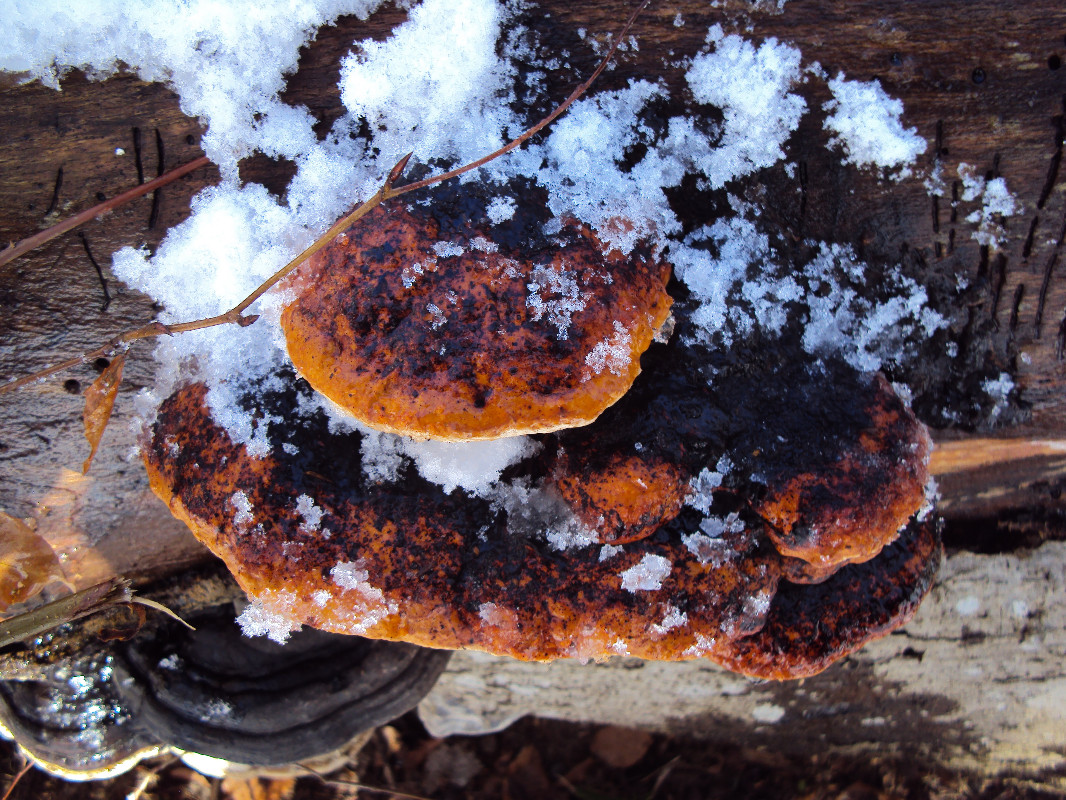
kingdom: Fungi
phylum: Basidiomycota
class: Agaricomycetes
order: Polyporales
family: Fomitopsidaceae
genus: Fomitopsis
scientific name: Fomitopsis pinicola
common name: randbæltet hovporesvamp
